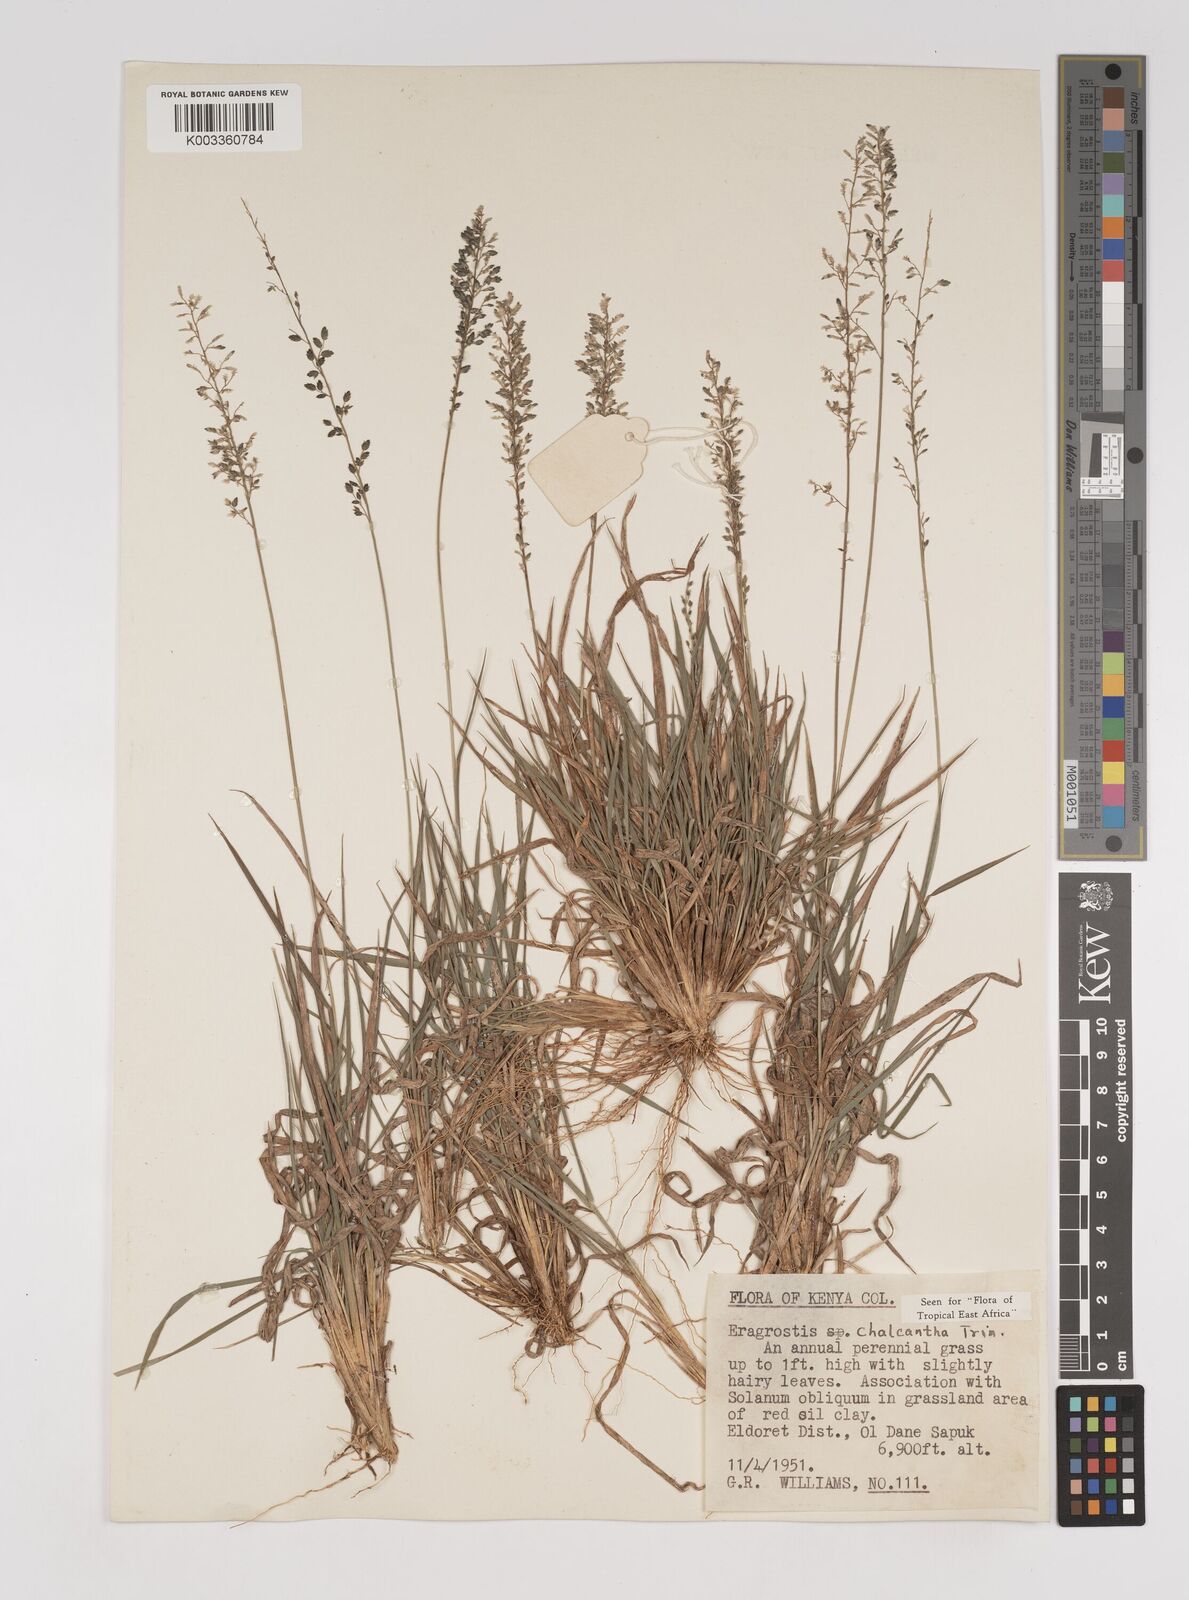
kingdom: Plantae
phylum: Tracheophyta
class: Liliopsida
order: Poales
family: Poaceae
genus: Eragrostis
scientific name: Eragrostis racemosa
